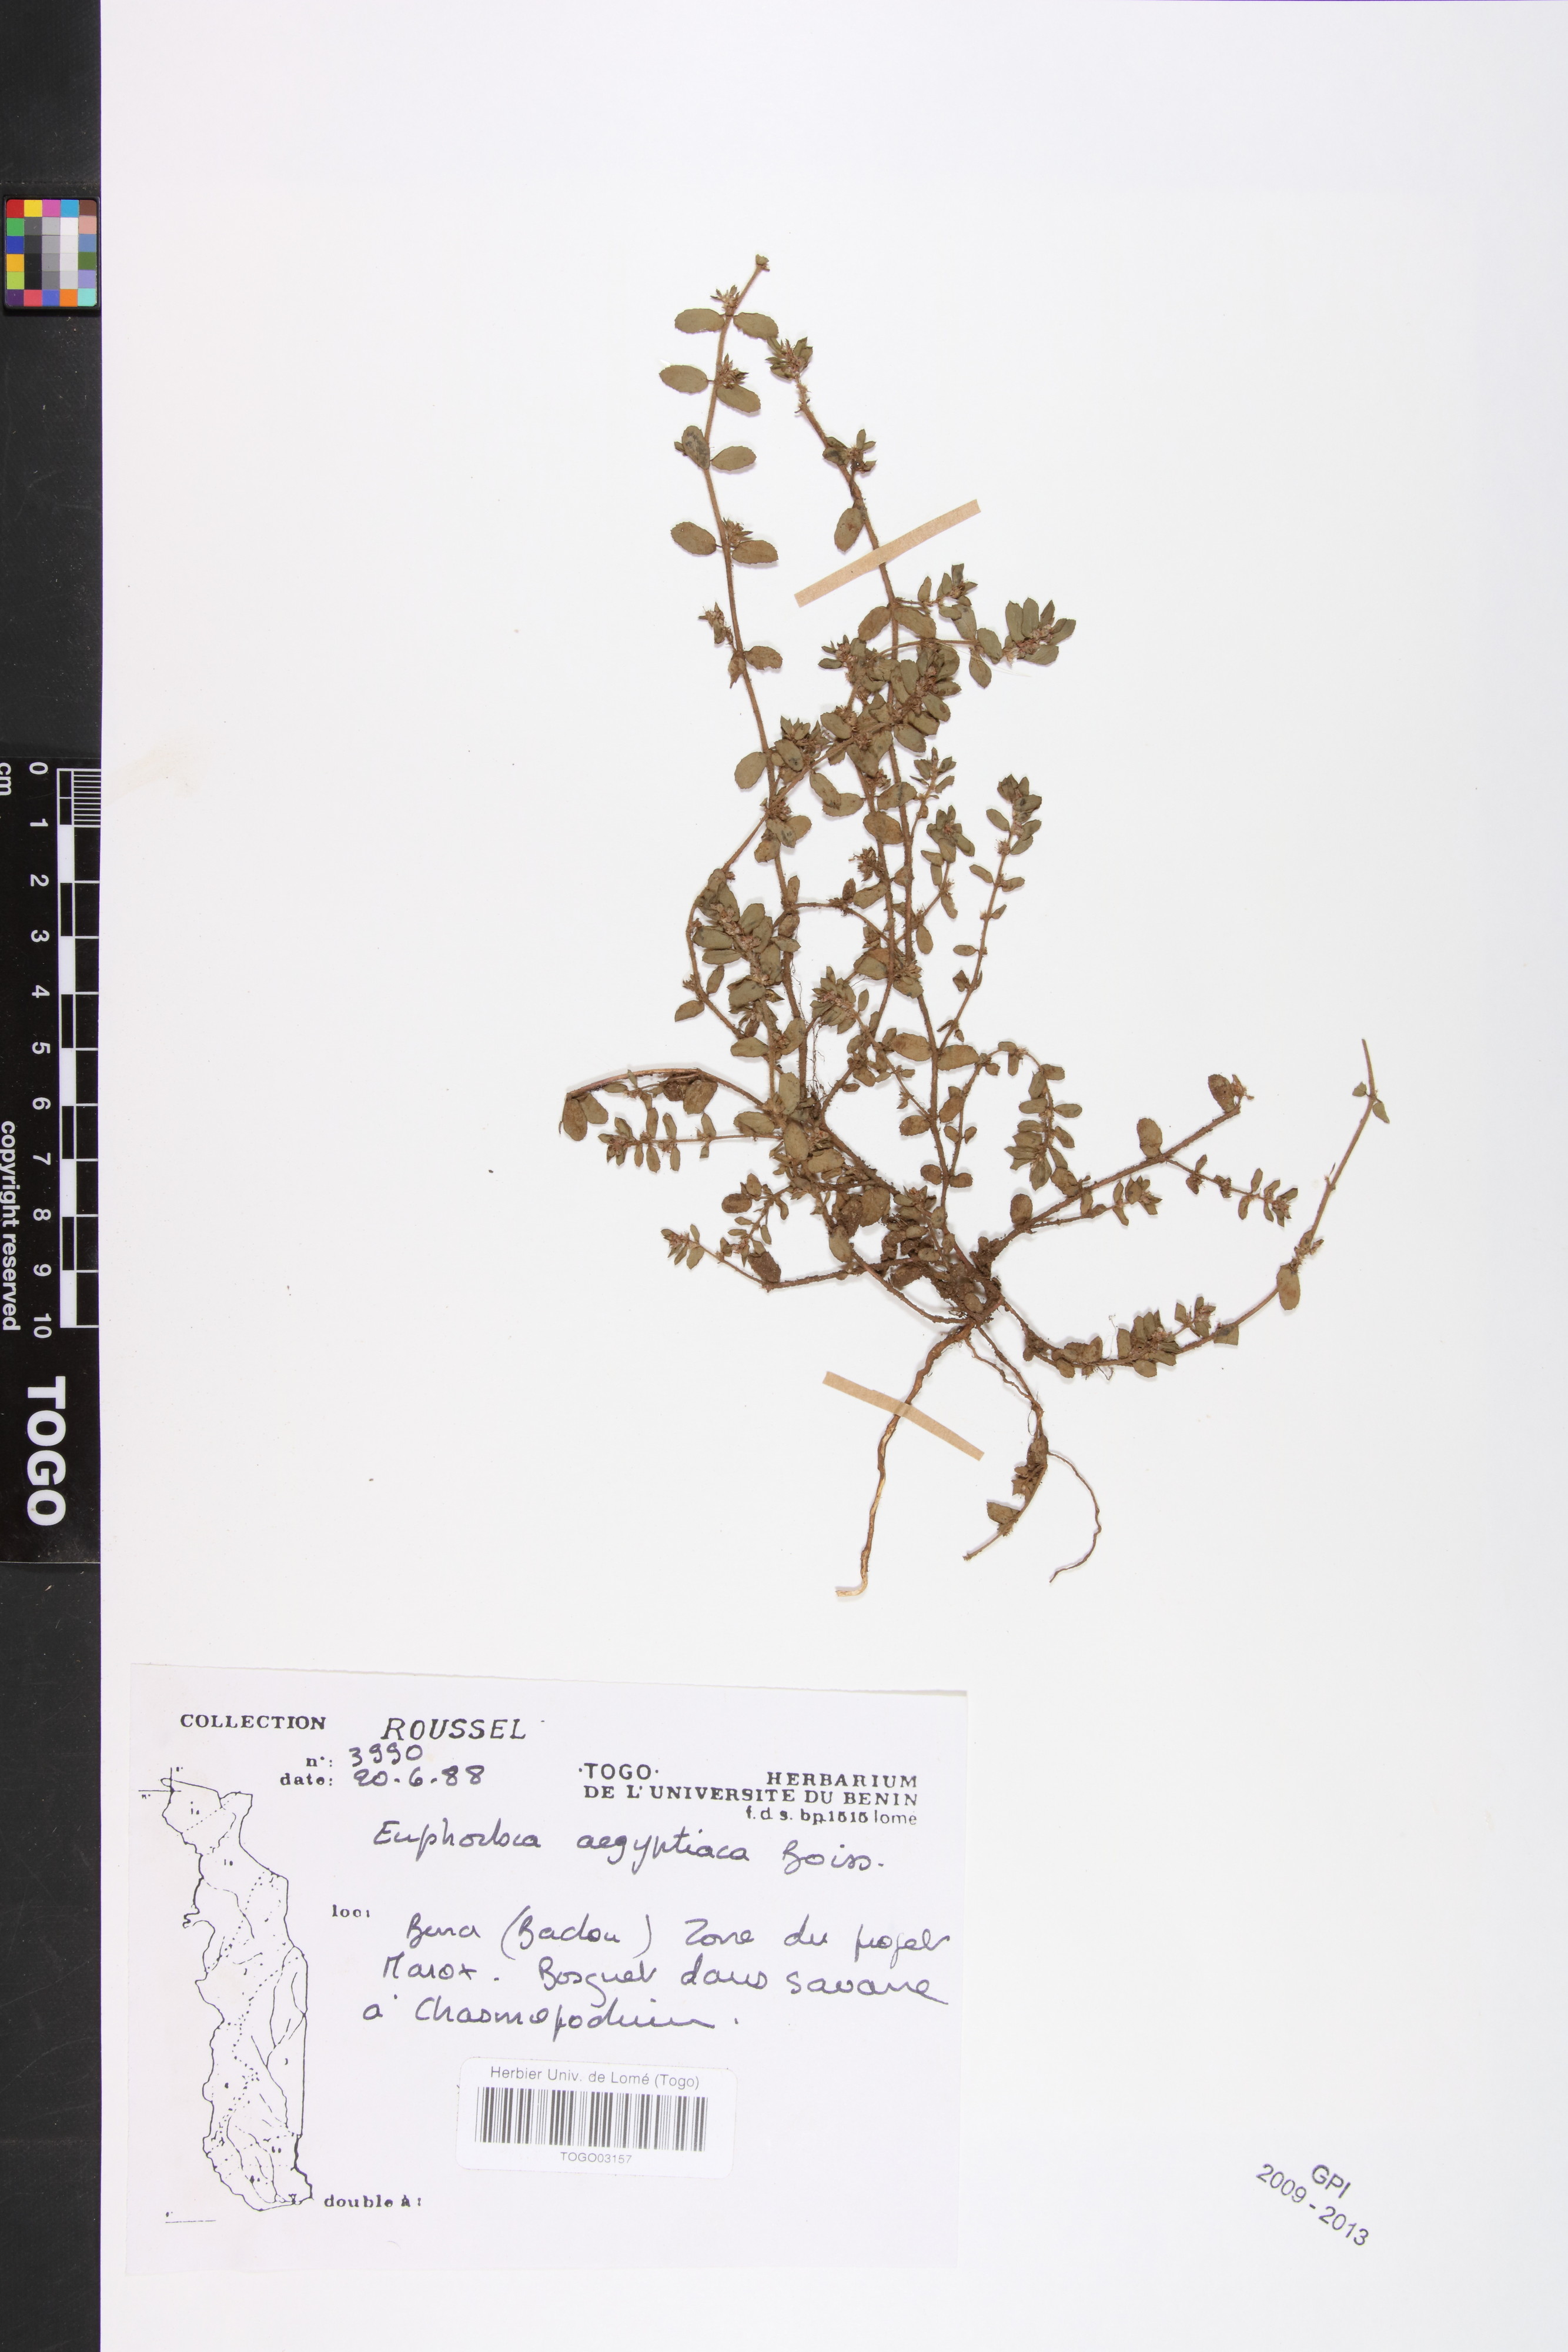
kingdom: Plantae
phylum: Tracheophyta
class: Magnoliopsida
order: Malpighiales
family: Euphorbiaceae
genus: Euphorbia
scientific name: Euphorbia forskaolii
